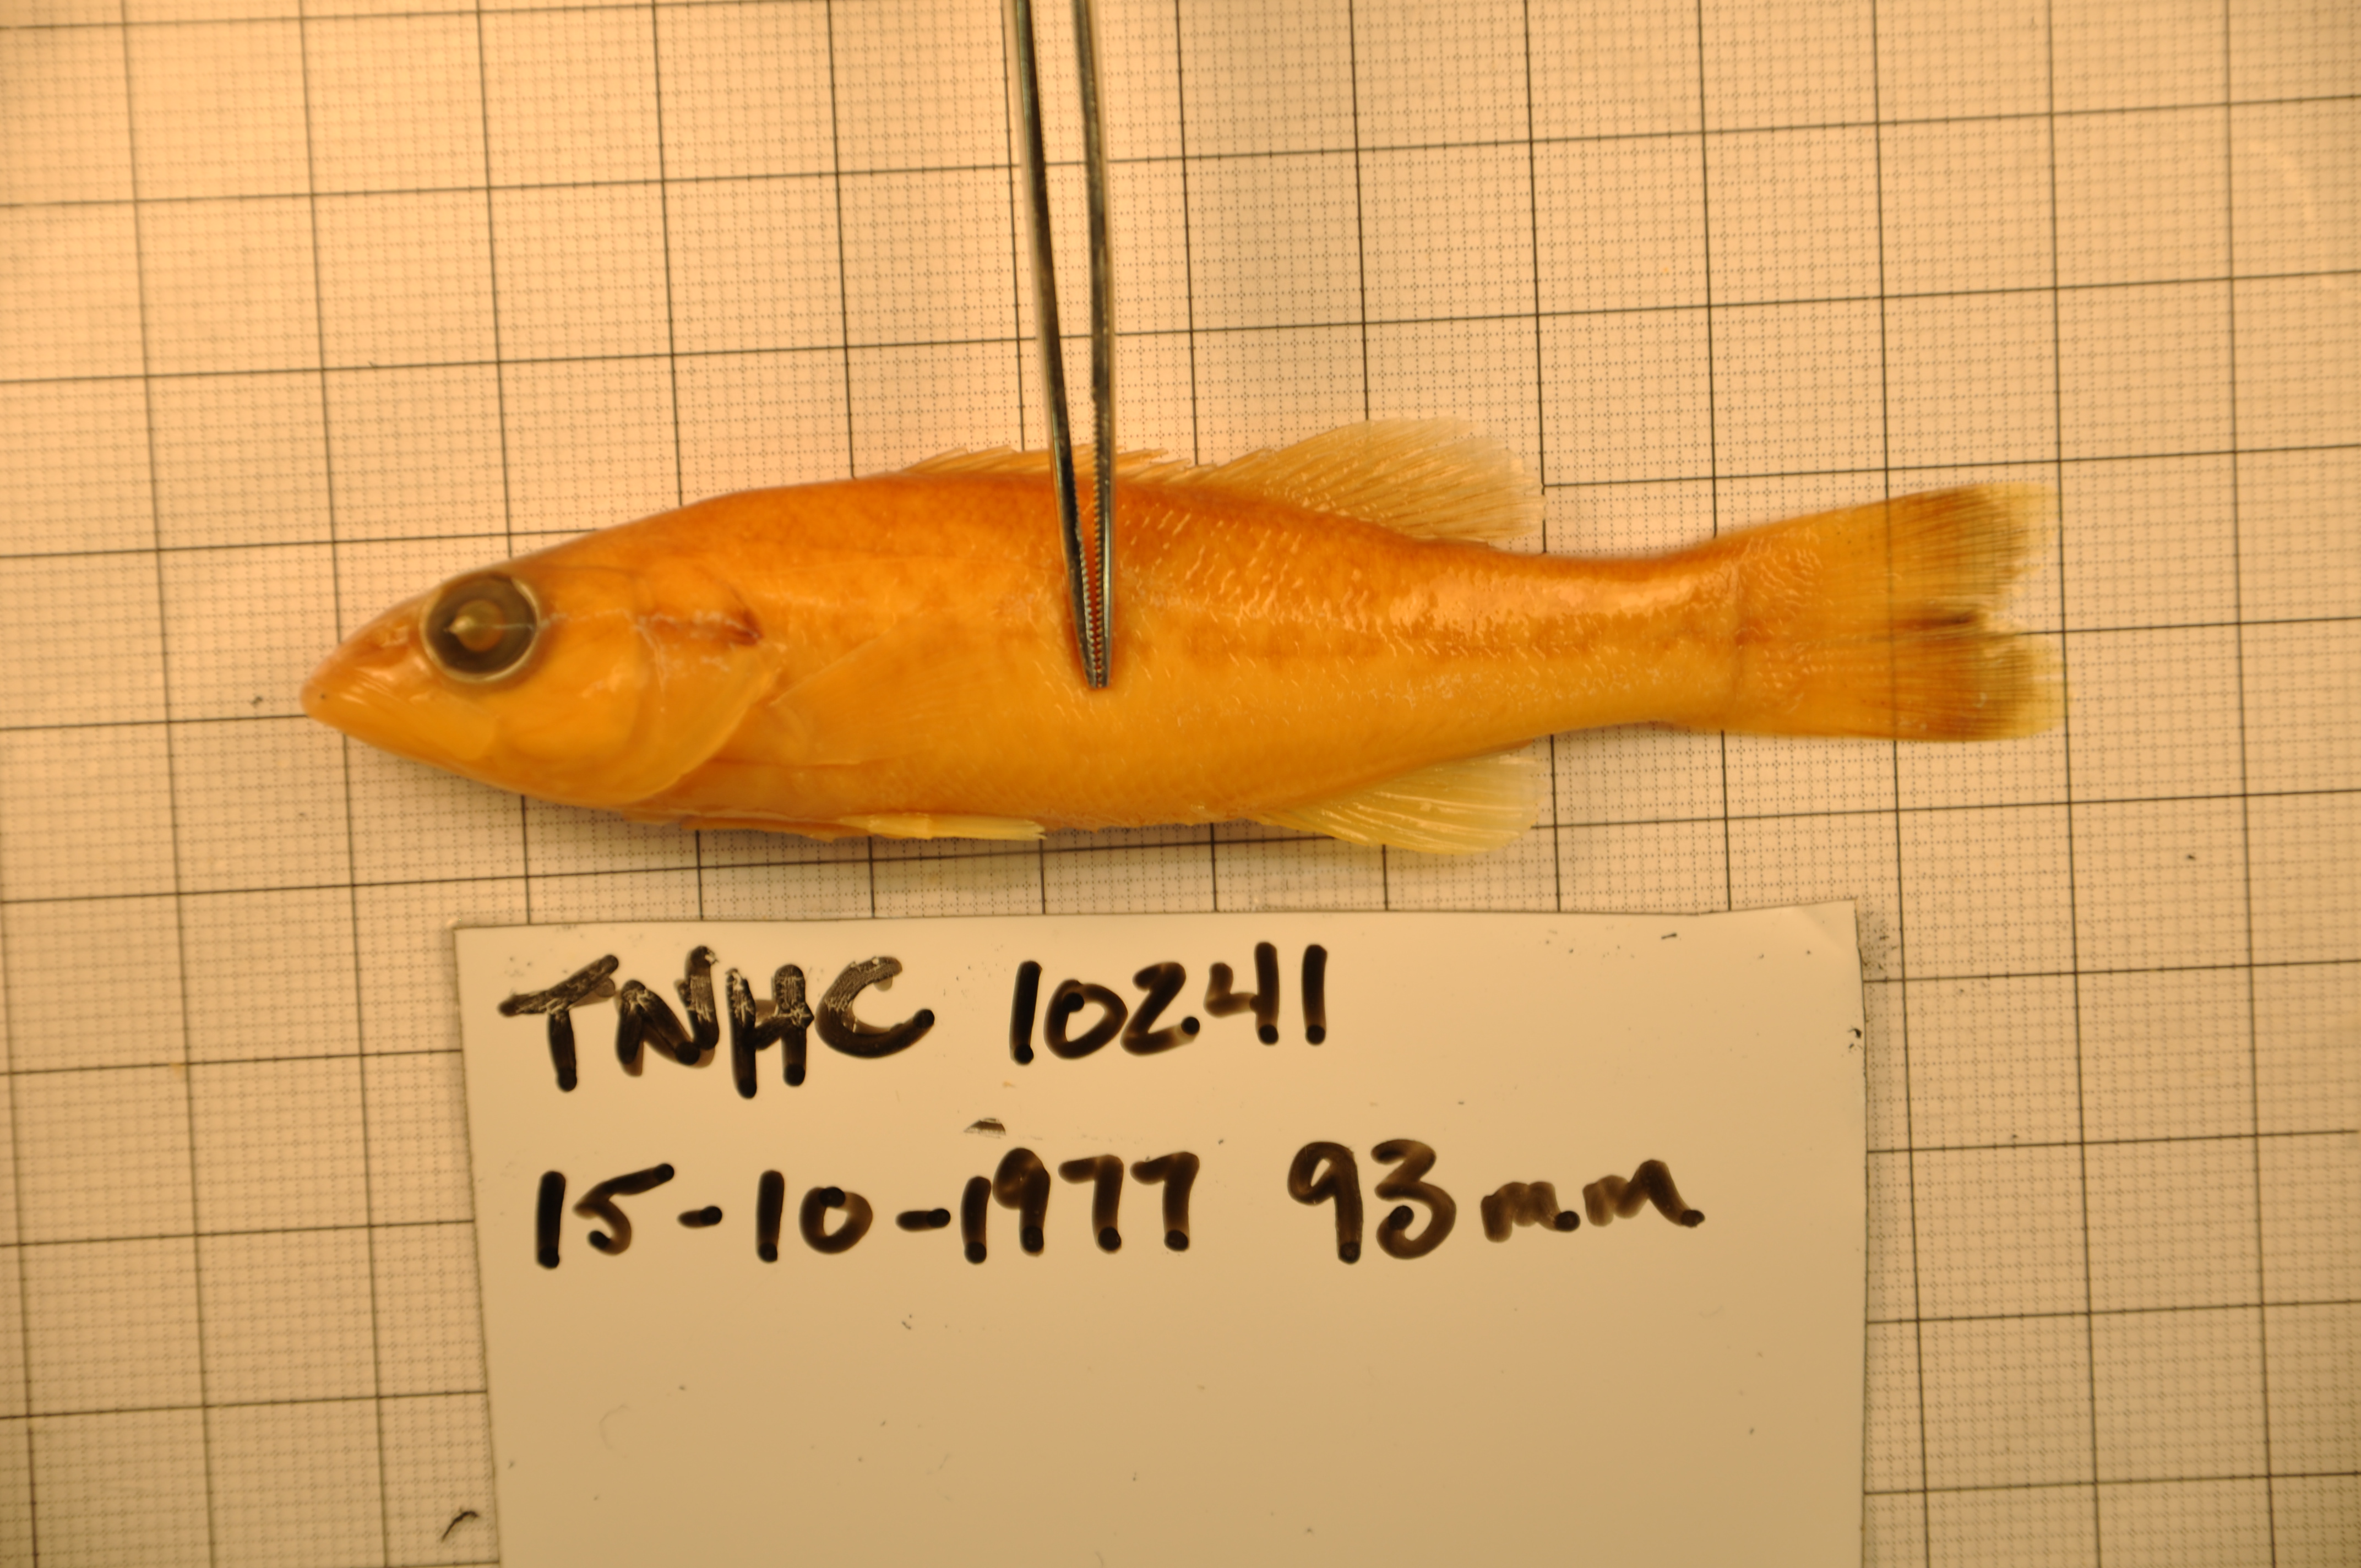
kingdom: Animalia
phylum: Chordata
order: Perciformes
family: Centrarchidae
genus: Micropterus
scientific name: Micropterus treculii
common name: Guadalupe bass
